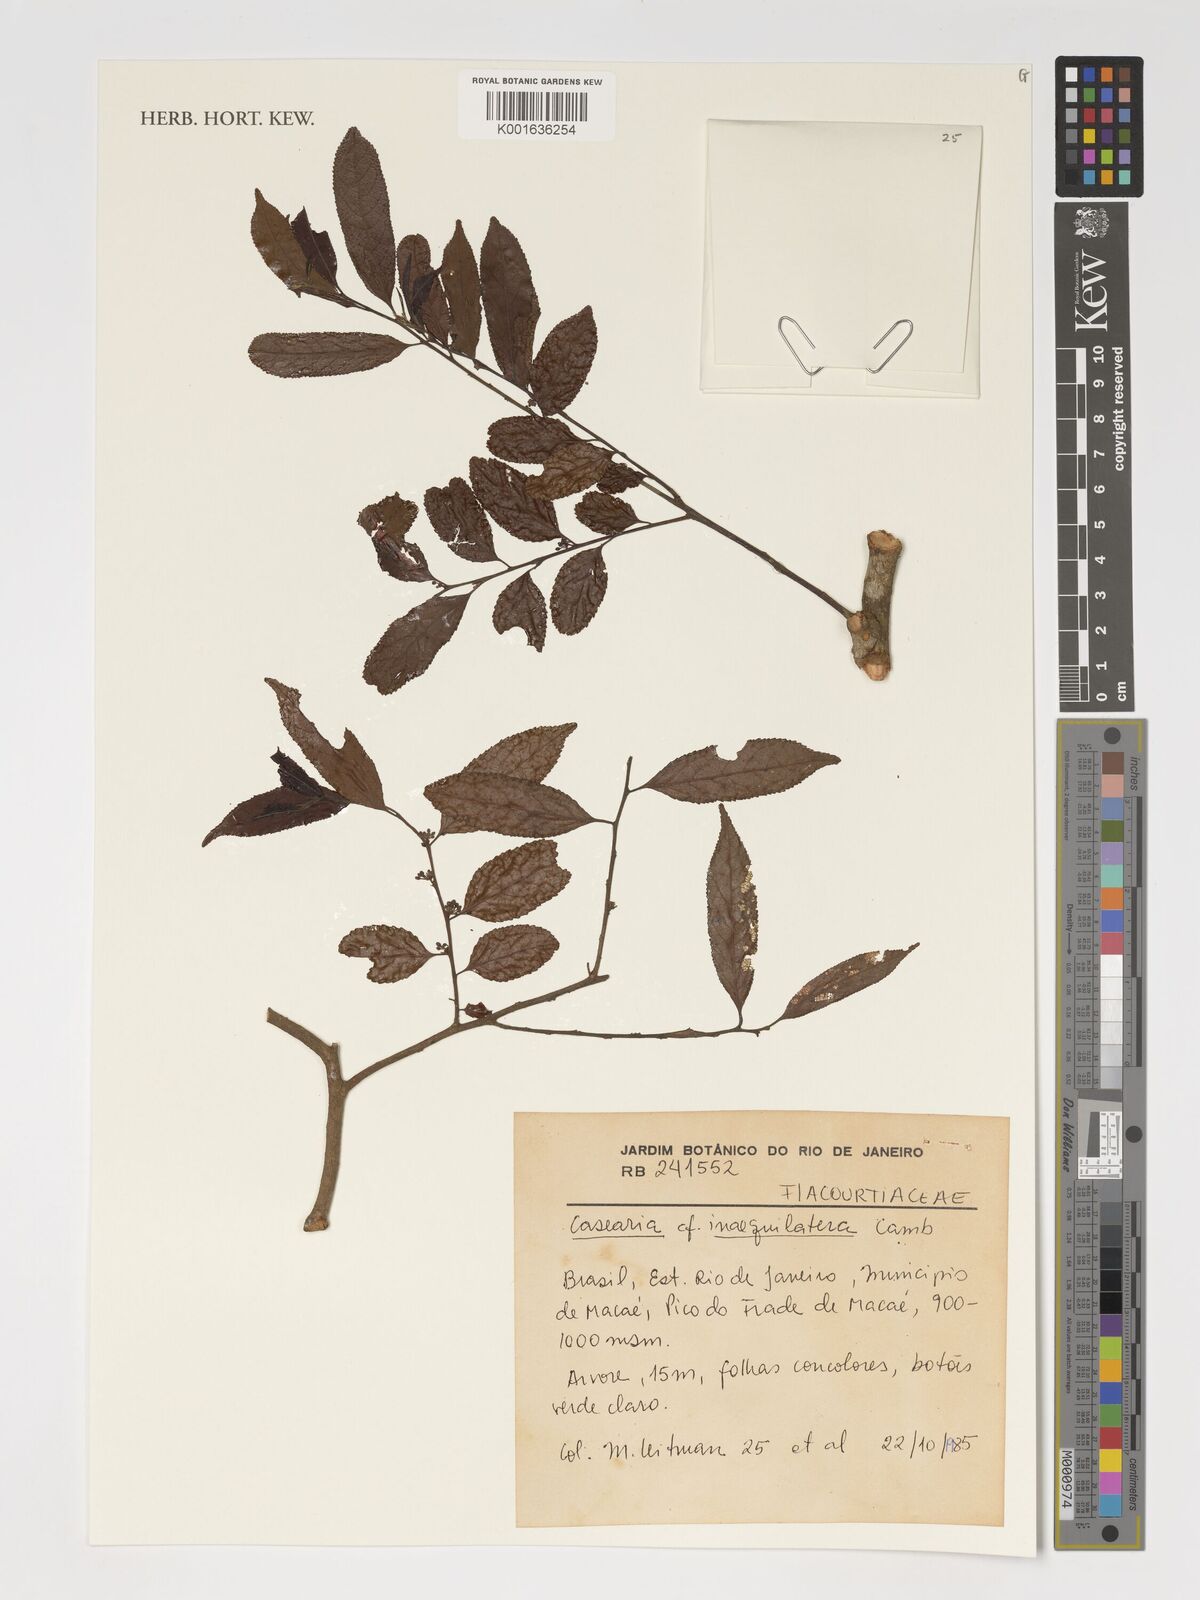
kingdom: Plantae
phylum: Tracheophyta
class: Magnoliopsida
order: Malpighiales
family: Salicaceae
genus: Casearia
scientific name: Casearia obliqua
